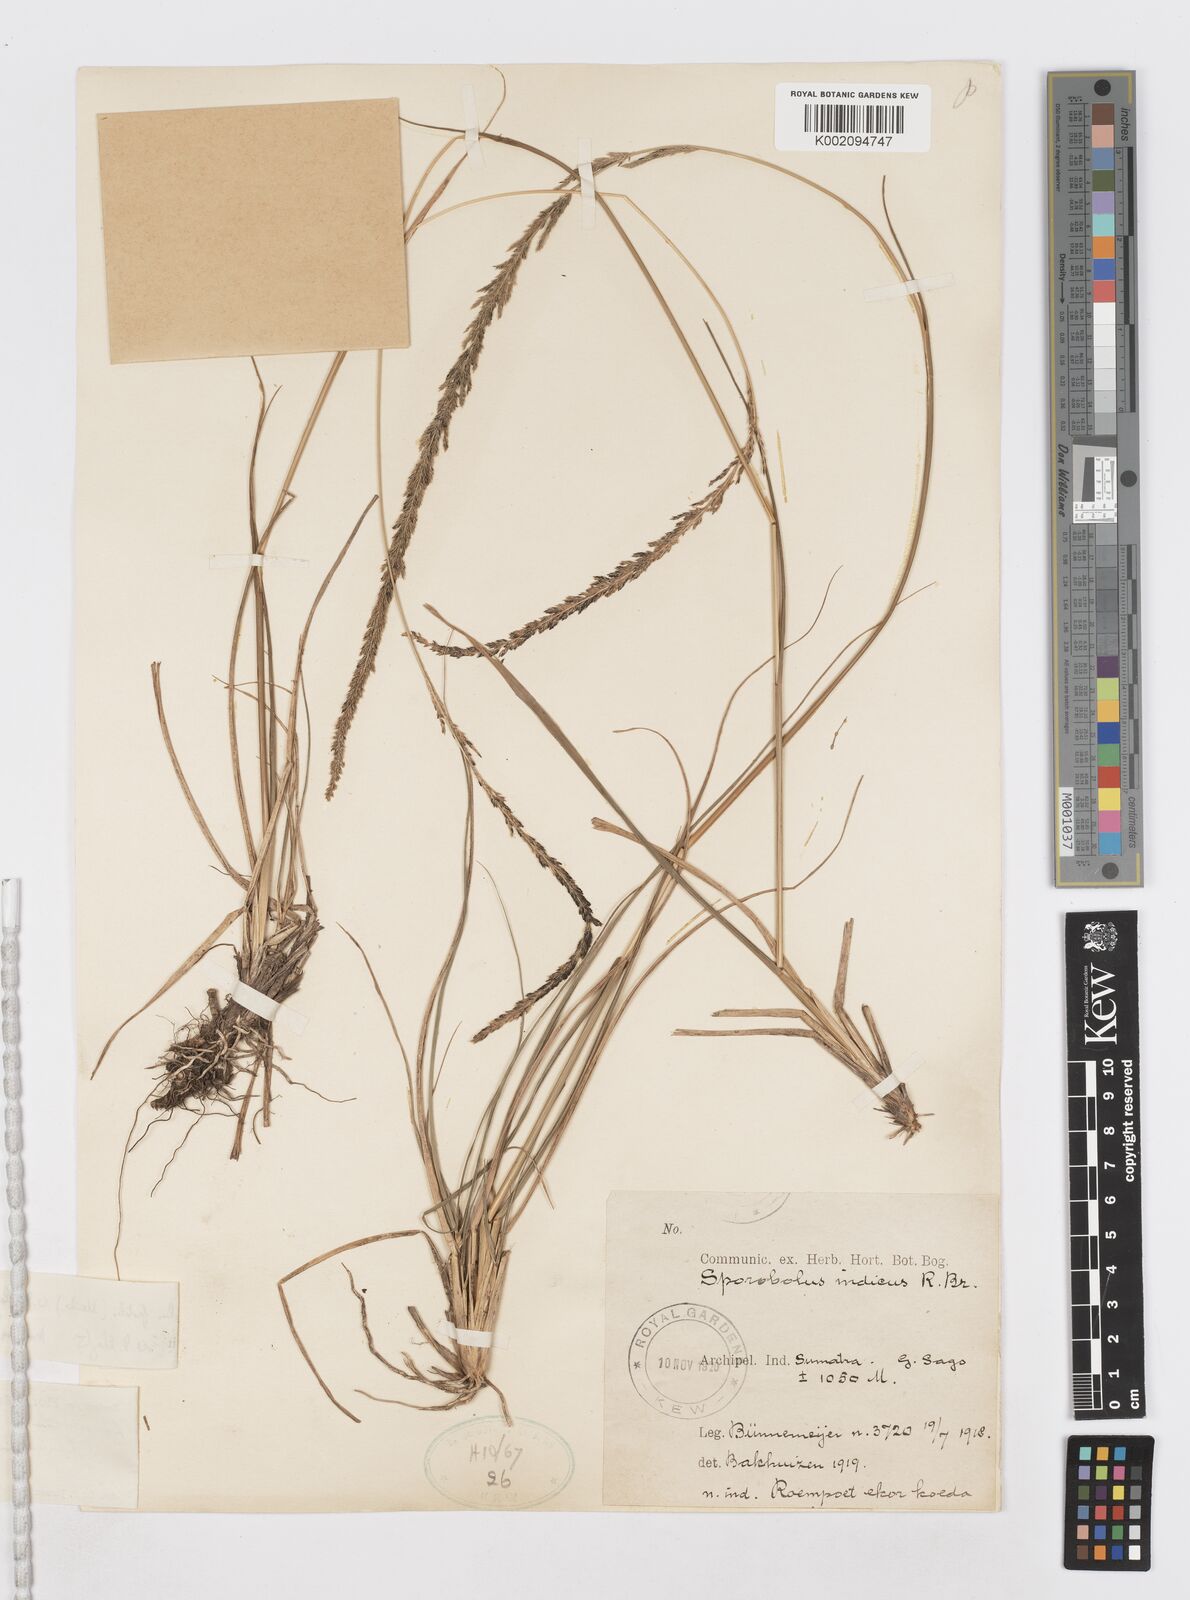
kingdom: Plantae
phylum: Tracheophyta
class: Liliopsida
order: Poales
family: Poaceae
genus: Sporobolus
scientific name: Sporobolus fertilis
